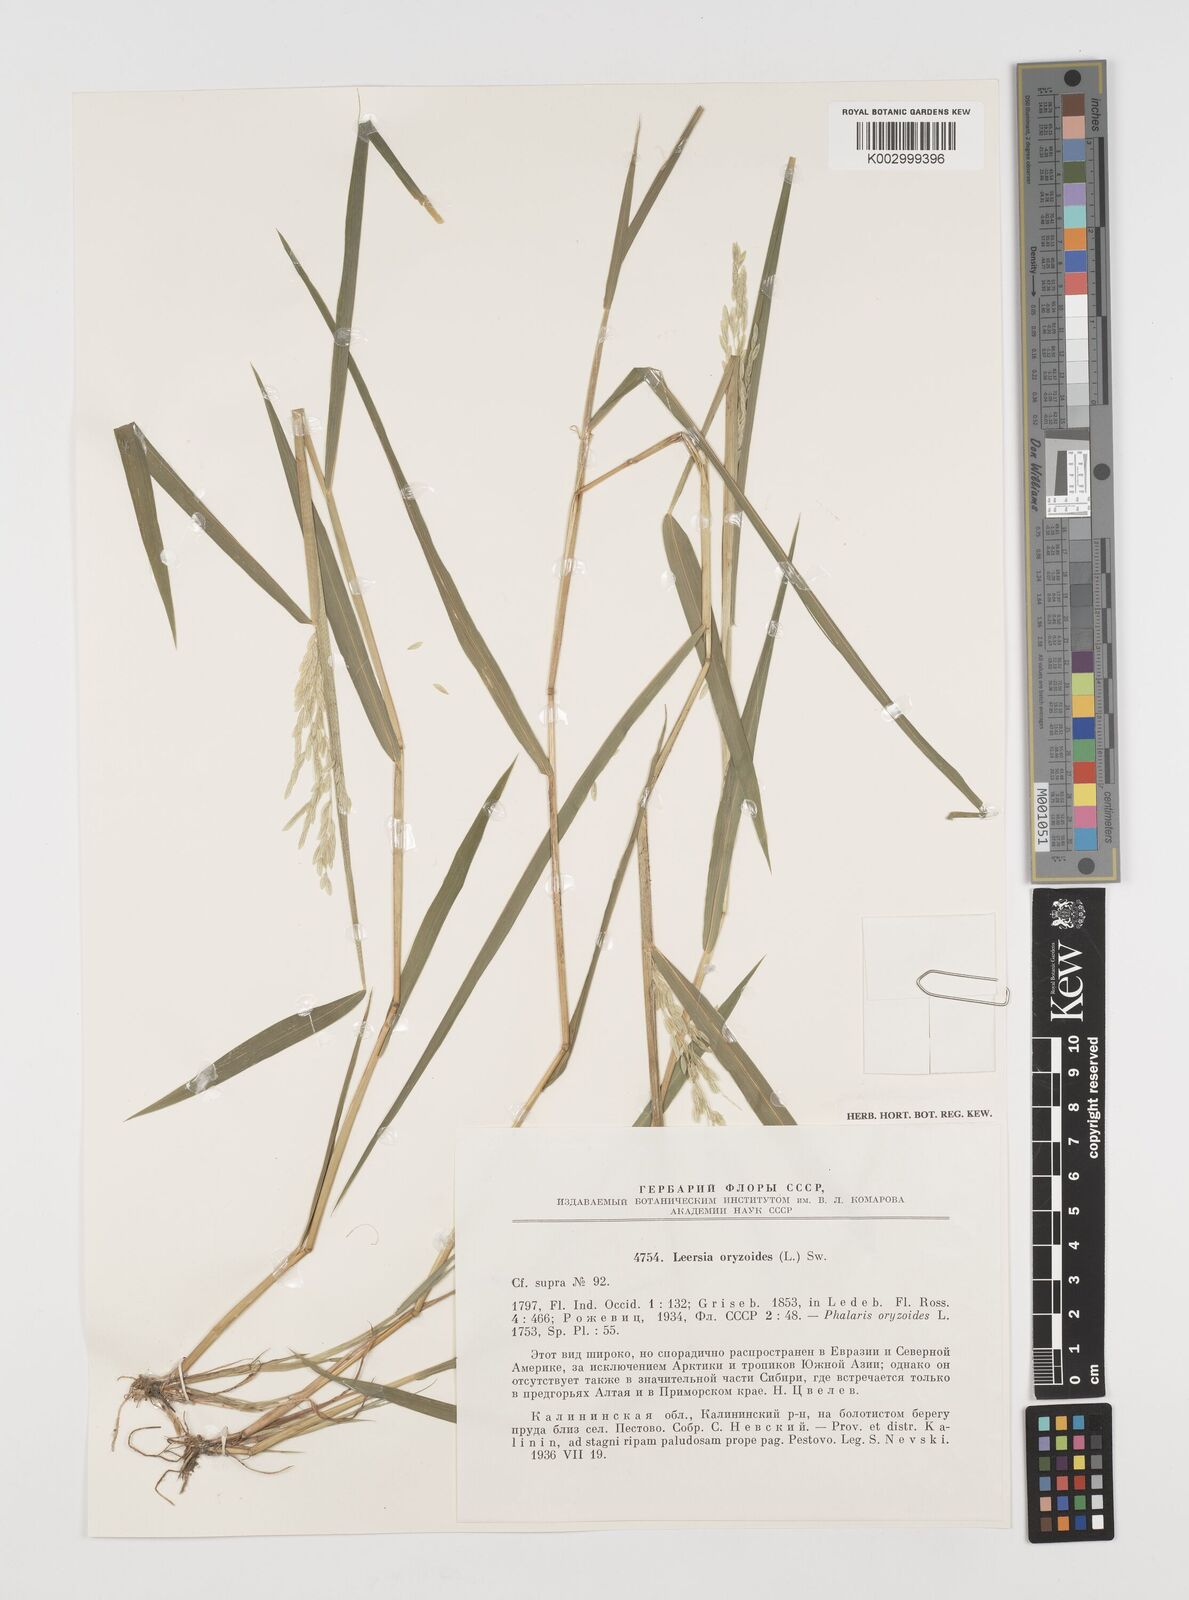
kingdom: Plantae
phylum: Tracheophyta
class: Liliopsida
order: Poales
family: Poaceae
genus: Leersia
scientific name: Leersia oryzoides
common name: Cut-grass
